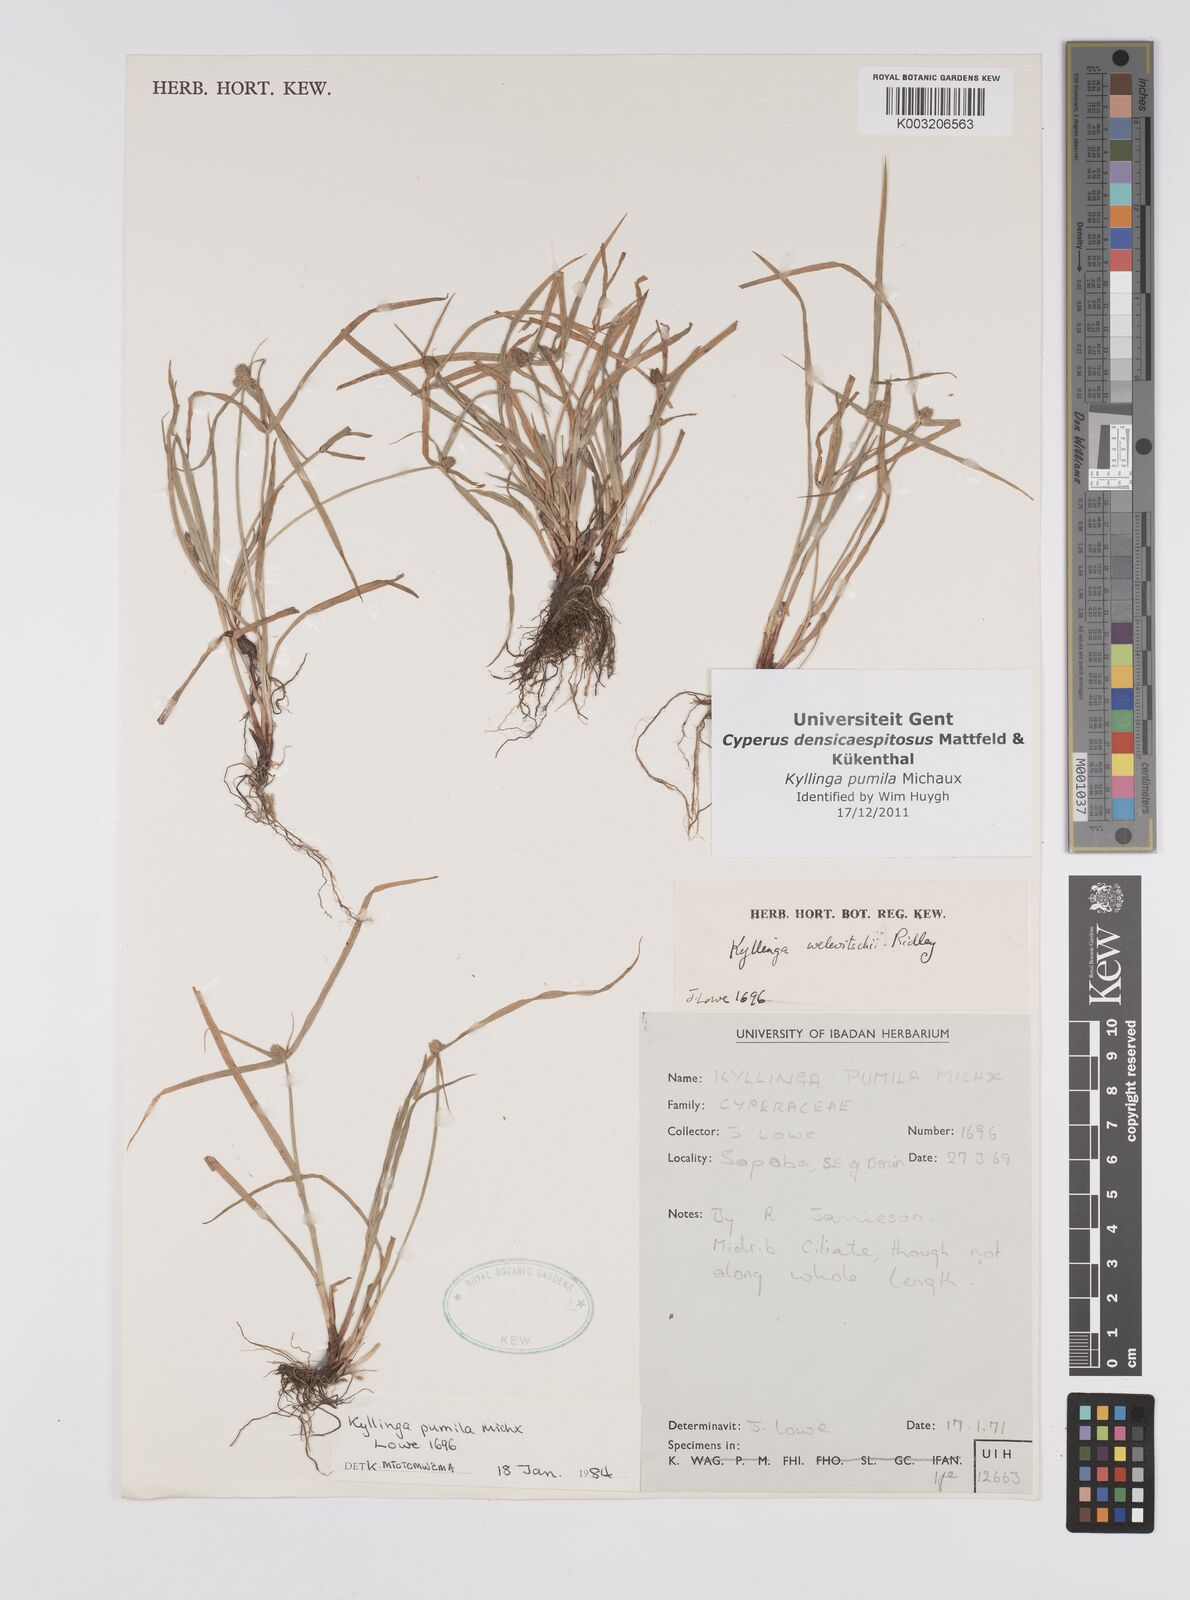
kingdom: Plantae
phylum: Tracheophyta
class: Liliopsida
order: Poales
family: Cyperaceae
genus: Cyperus
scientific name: Cyperus
